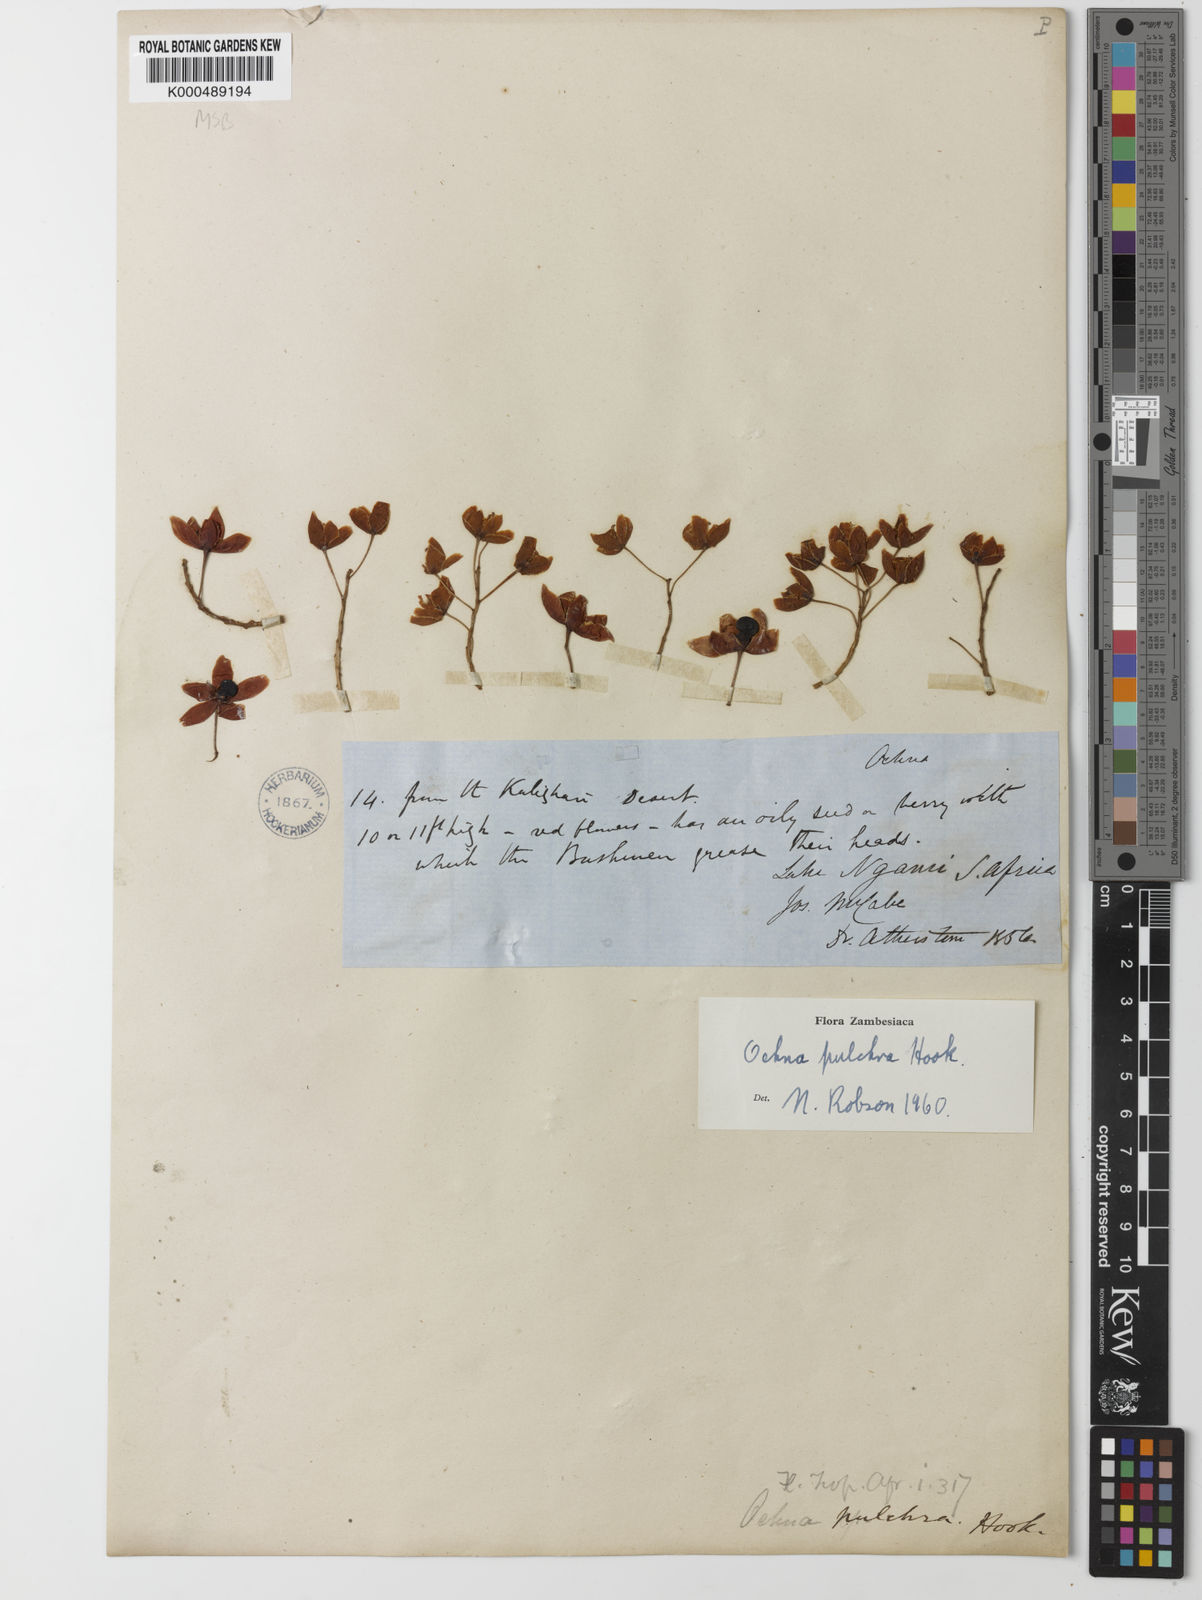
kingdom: Plantae
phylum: Tracheophyta
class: Magnoliopsida
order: Malpighiales
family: Ochnaceae
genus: Ochna
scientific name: Ochna pulchra
